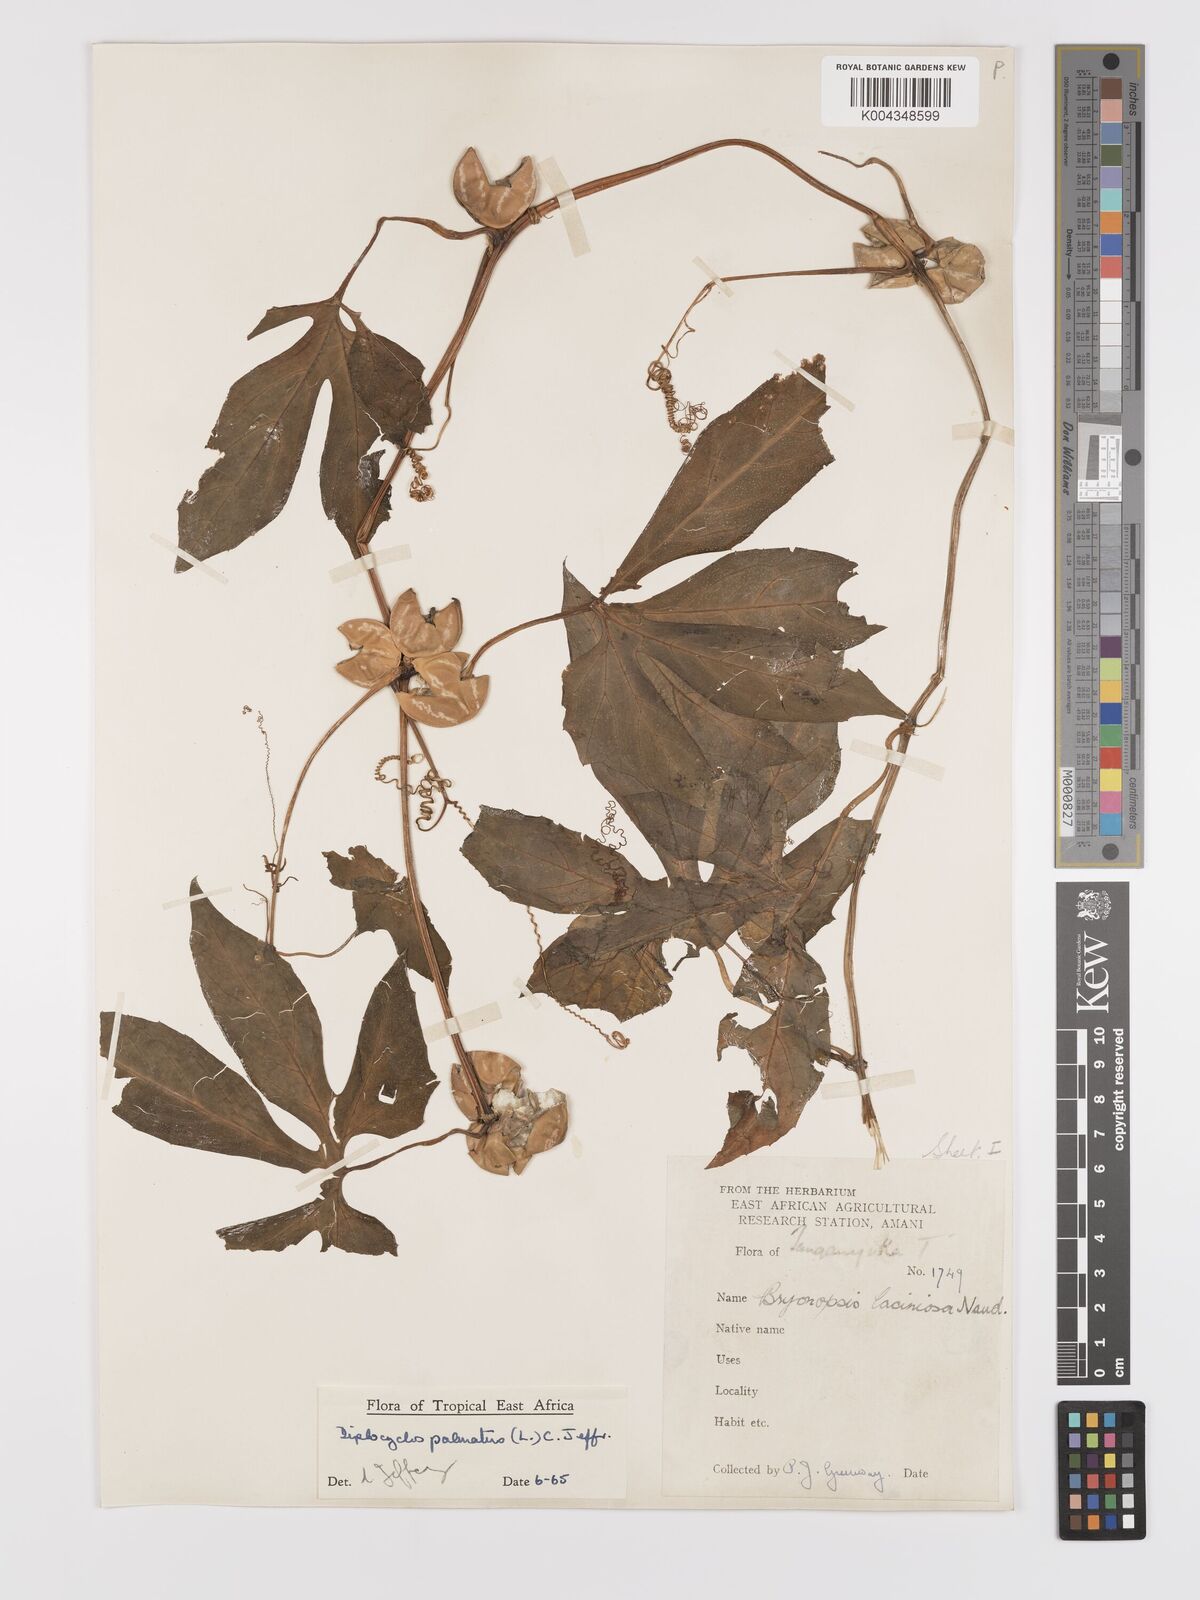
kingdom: Plantae
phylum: Tracheophyta
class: Magnoliopsida
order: Cucurbitales
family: Cucurbitaceae
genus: Diplocyclos
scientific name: Diplocyclos palmatus
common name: Striped-cucumber
